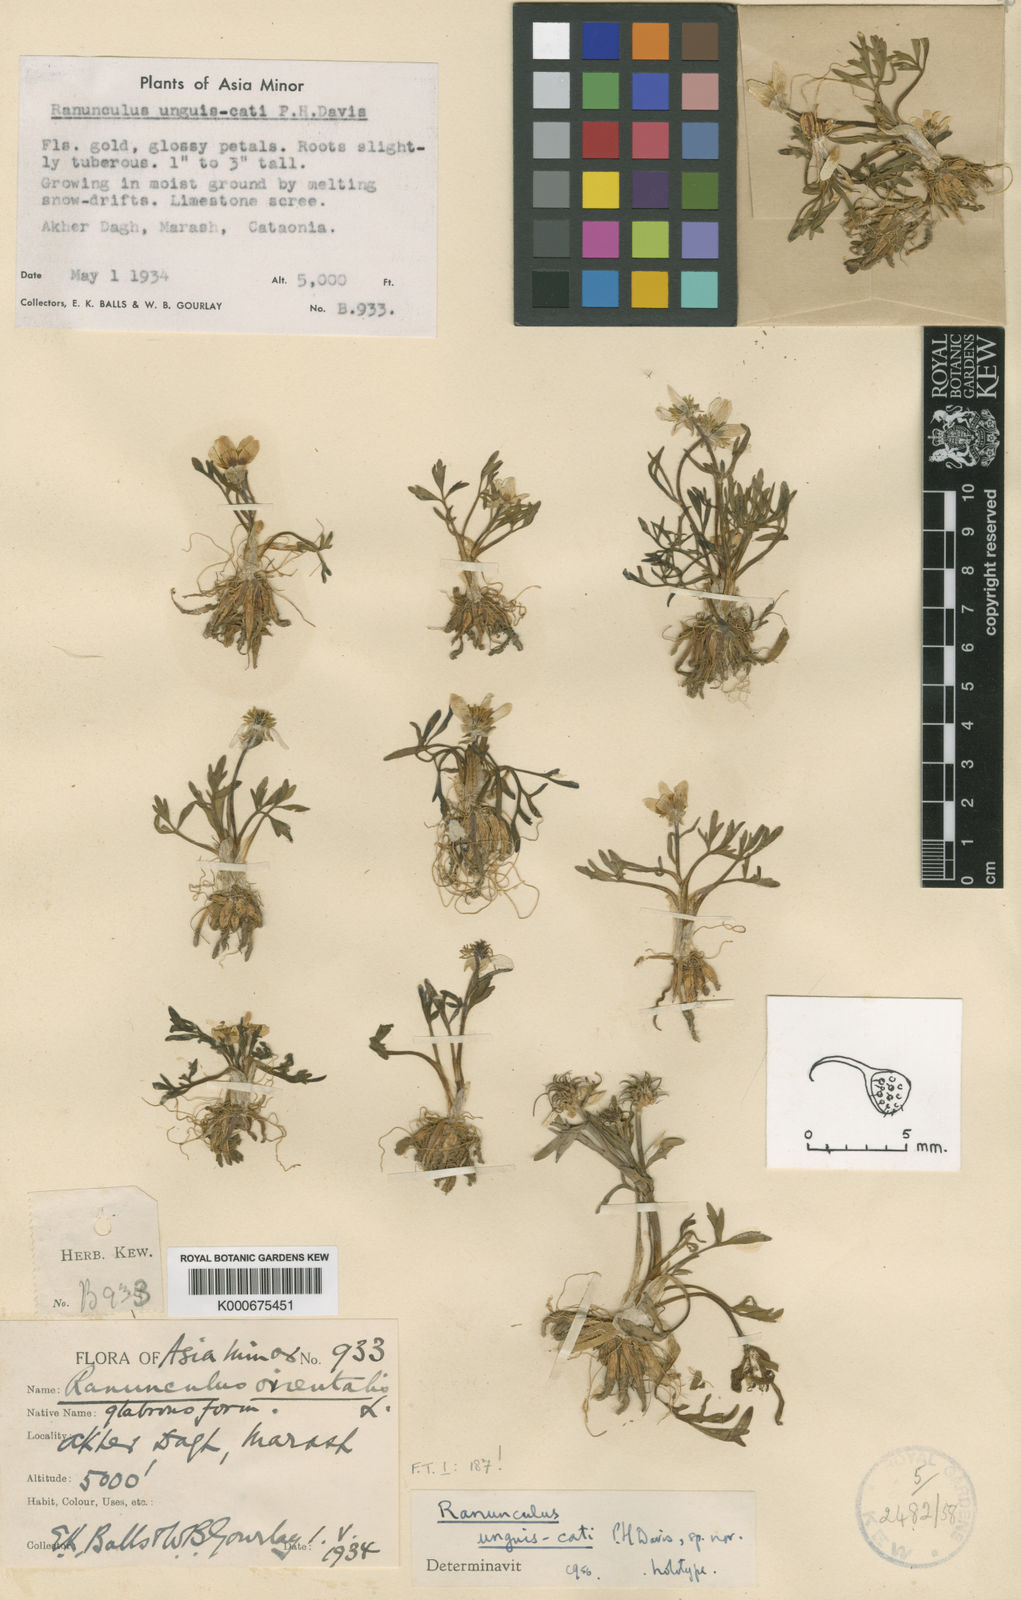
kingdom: Plantae
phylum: Tracheophyta
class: Magnoliopsida
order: Ranunculales
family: Ranunculaceae
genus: Ranunculus
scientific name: Ranunculus unguis-cati
